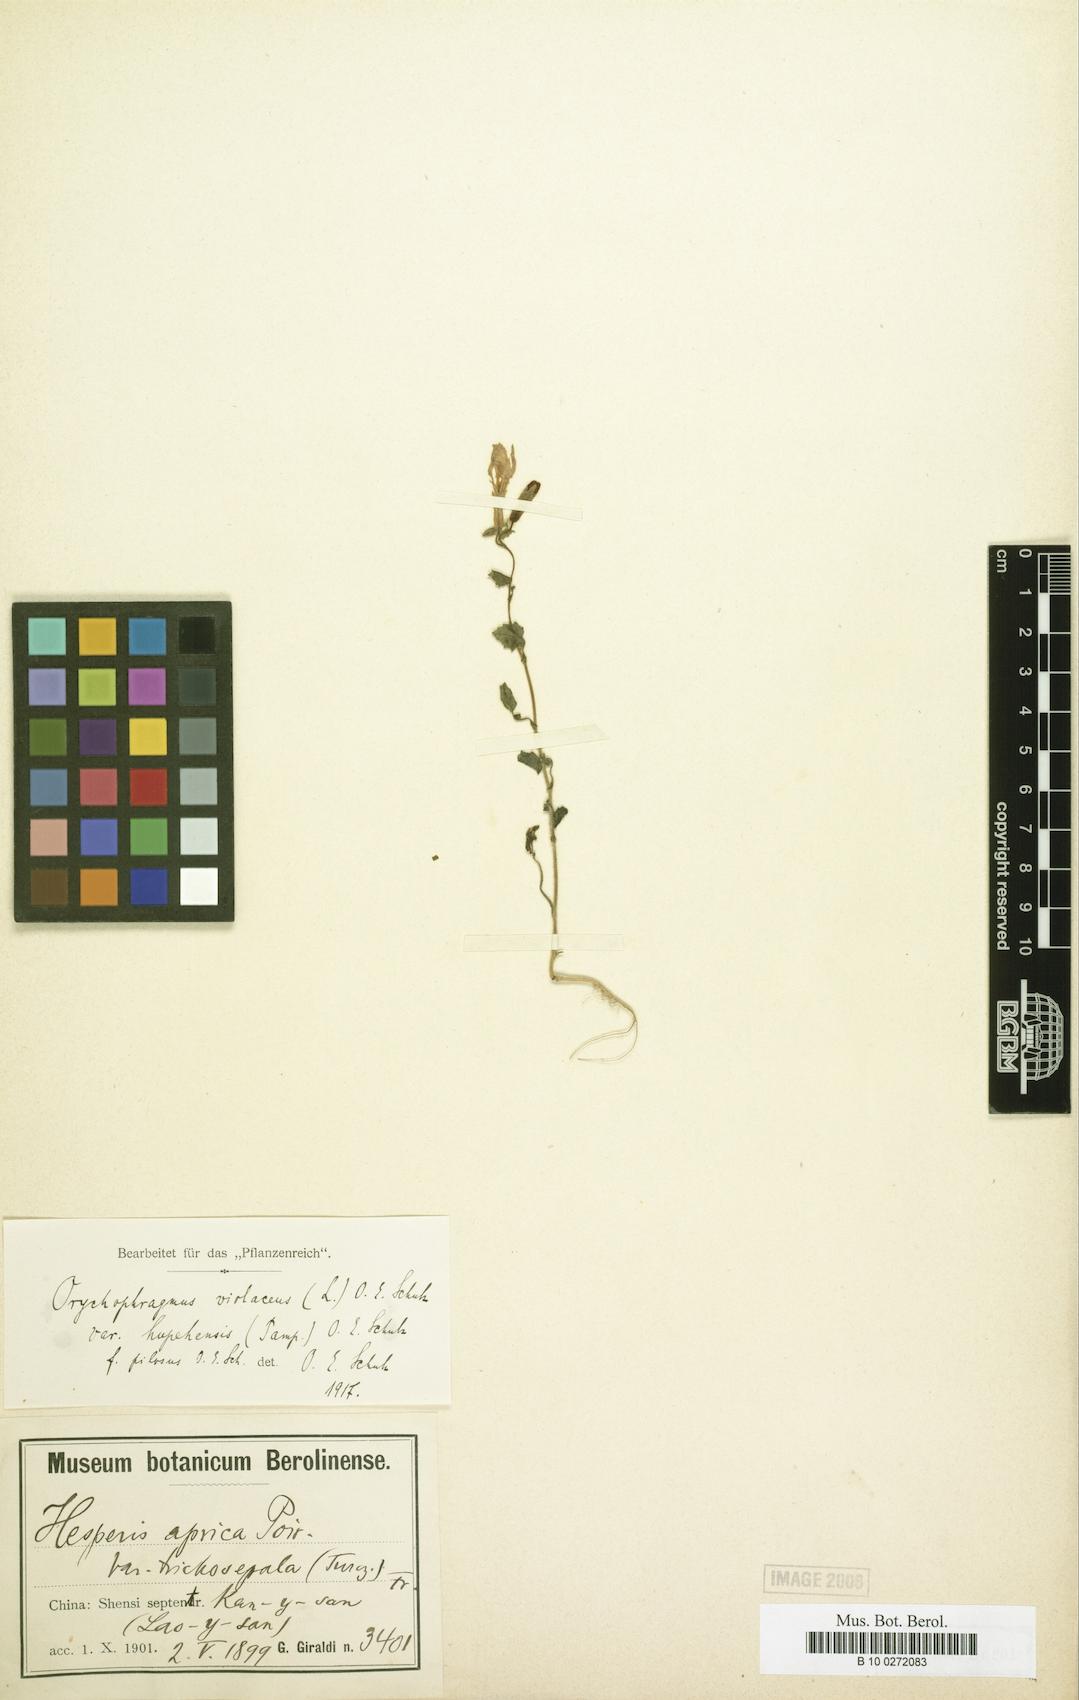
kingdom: Plantae
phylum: Tracheophyta
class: Magnoliopsida
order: Brassicales
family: Brassicaceae
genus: Orychophragmus
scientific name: Orychophragmus violaceus
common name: Mustard
